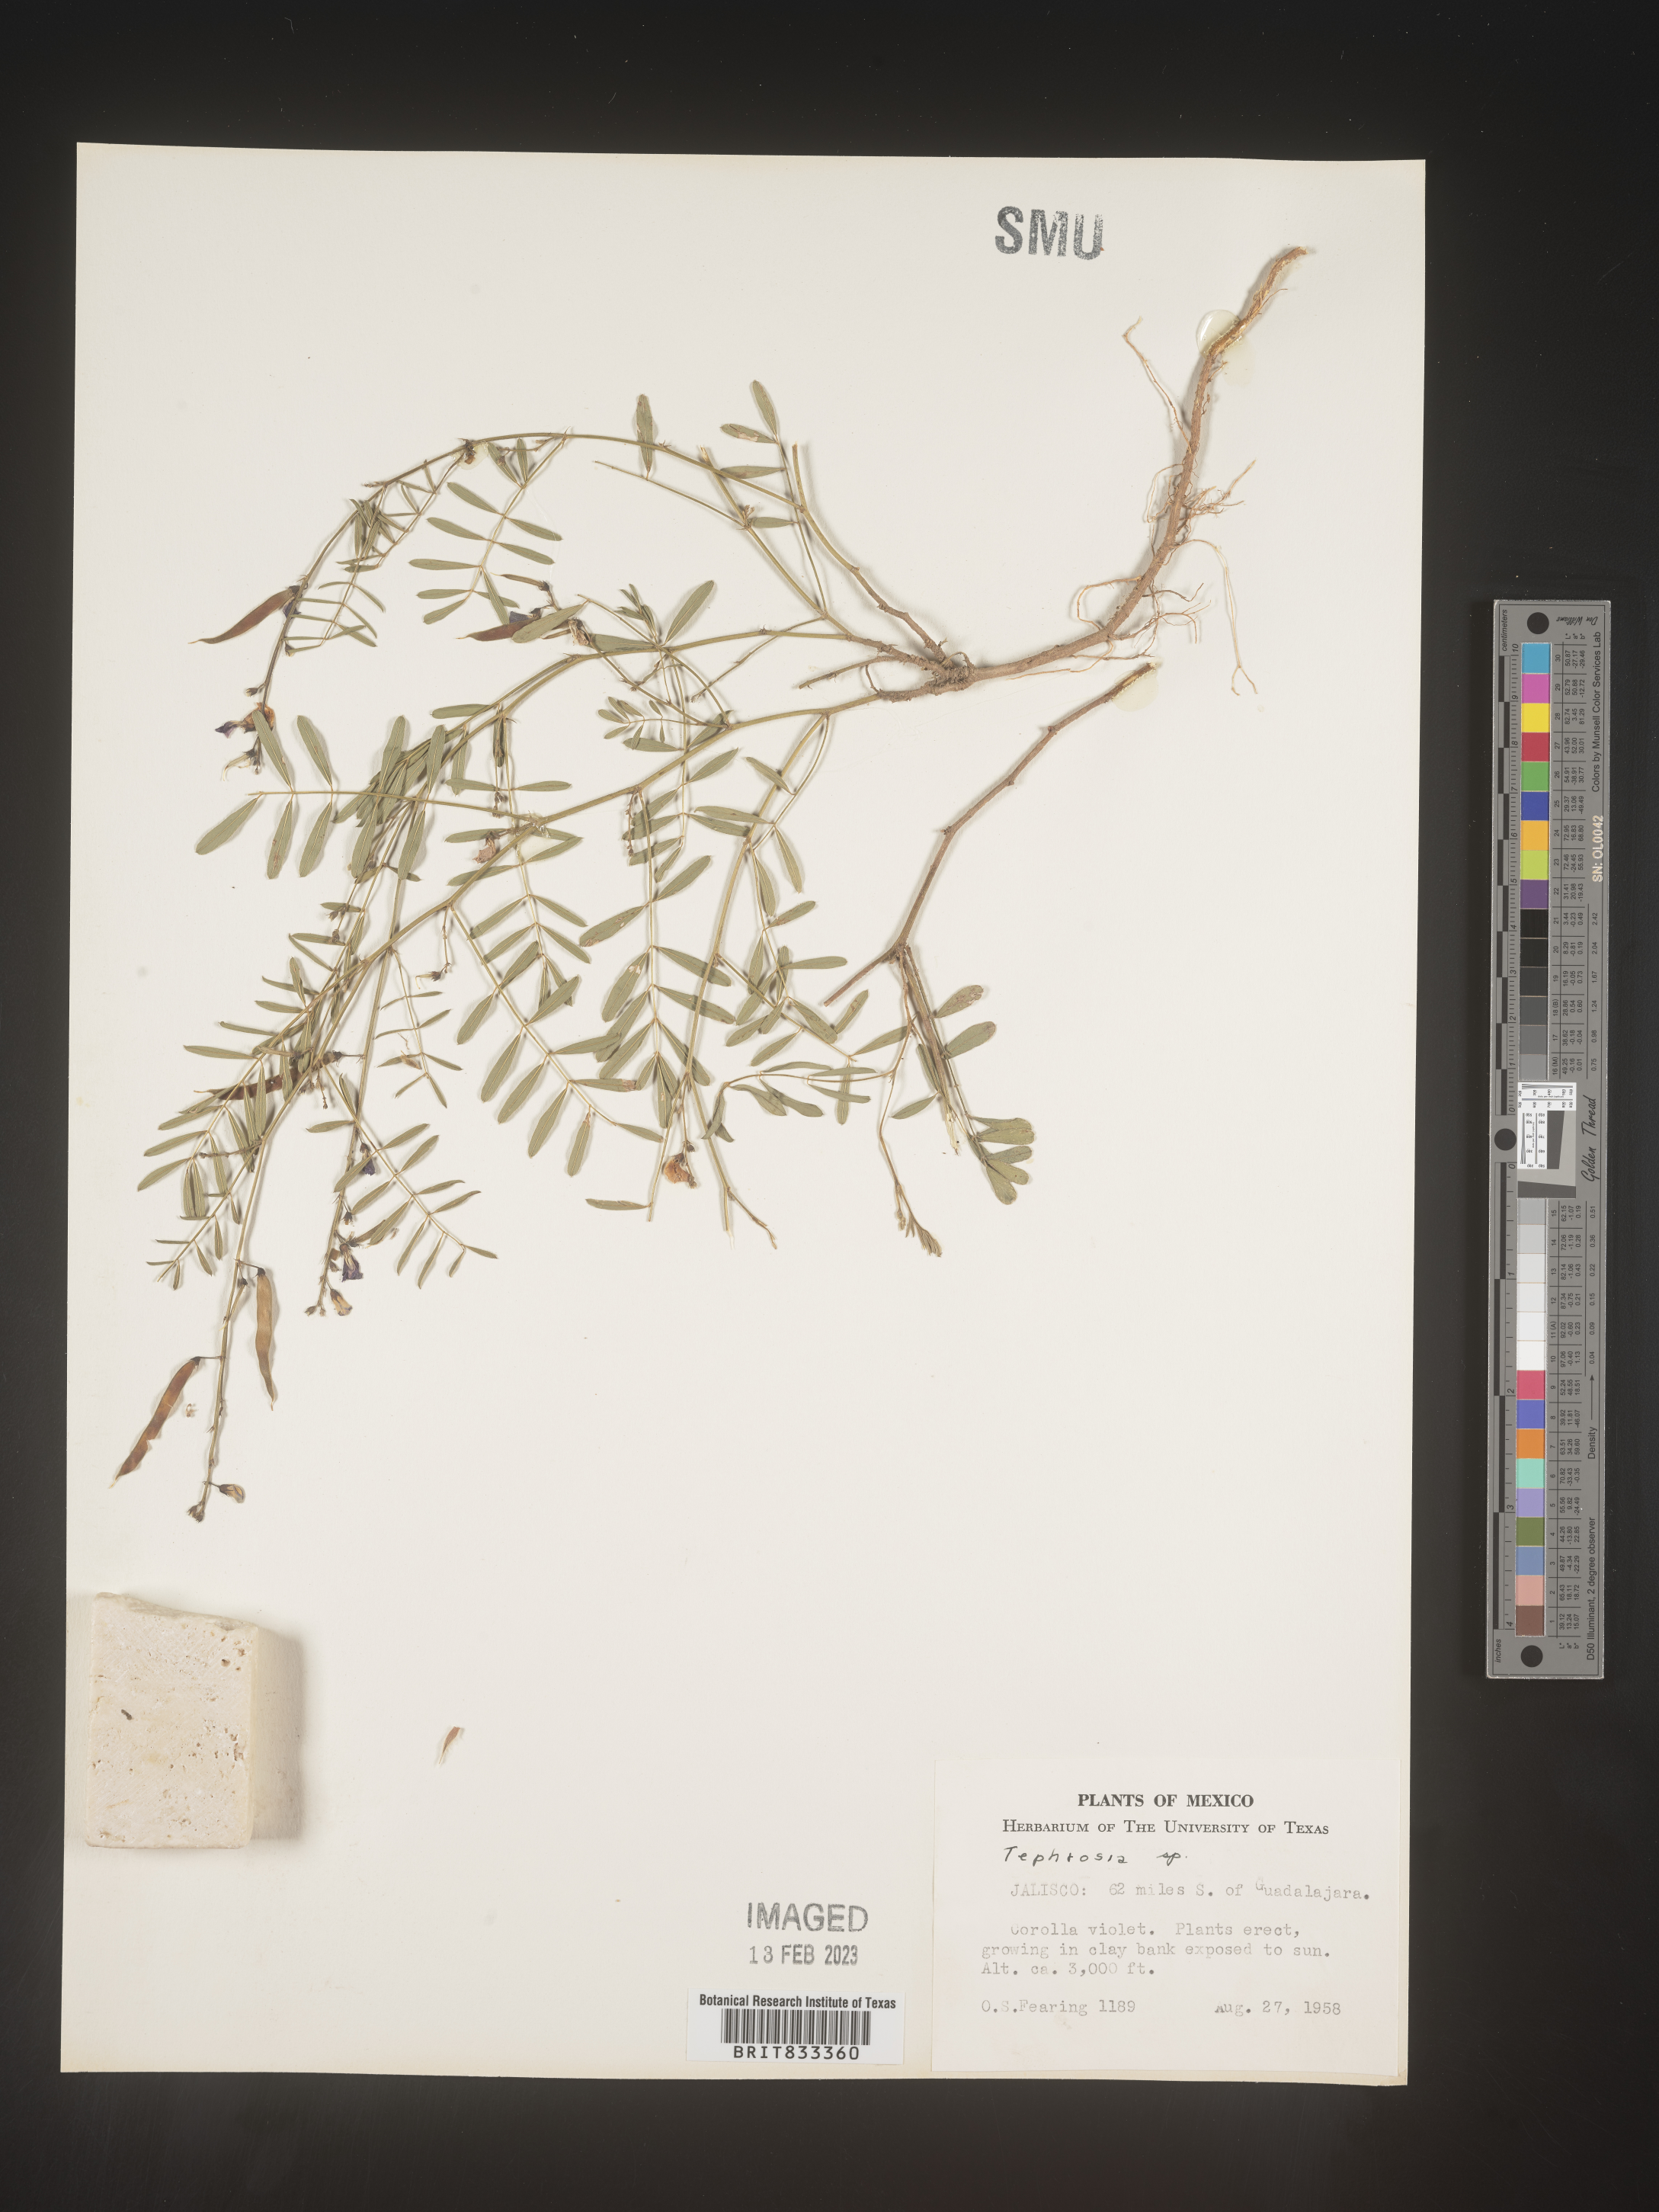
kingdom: Plantae
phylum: Tracheophyta
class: Magnoliopsida
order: Fabales
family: Fabaceae
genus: Tephrosia
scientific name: Tephrosia
